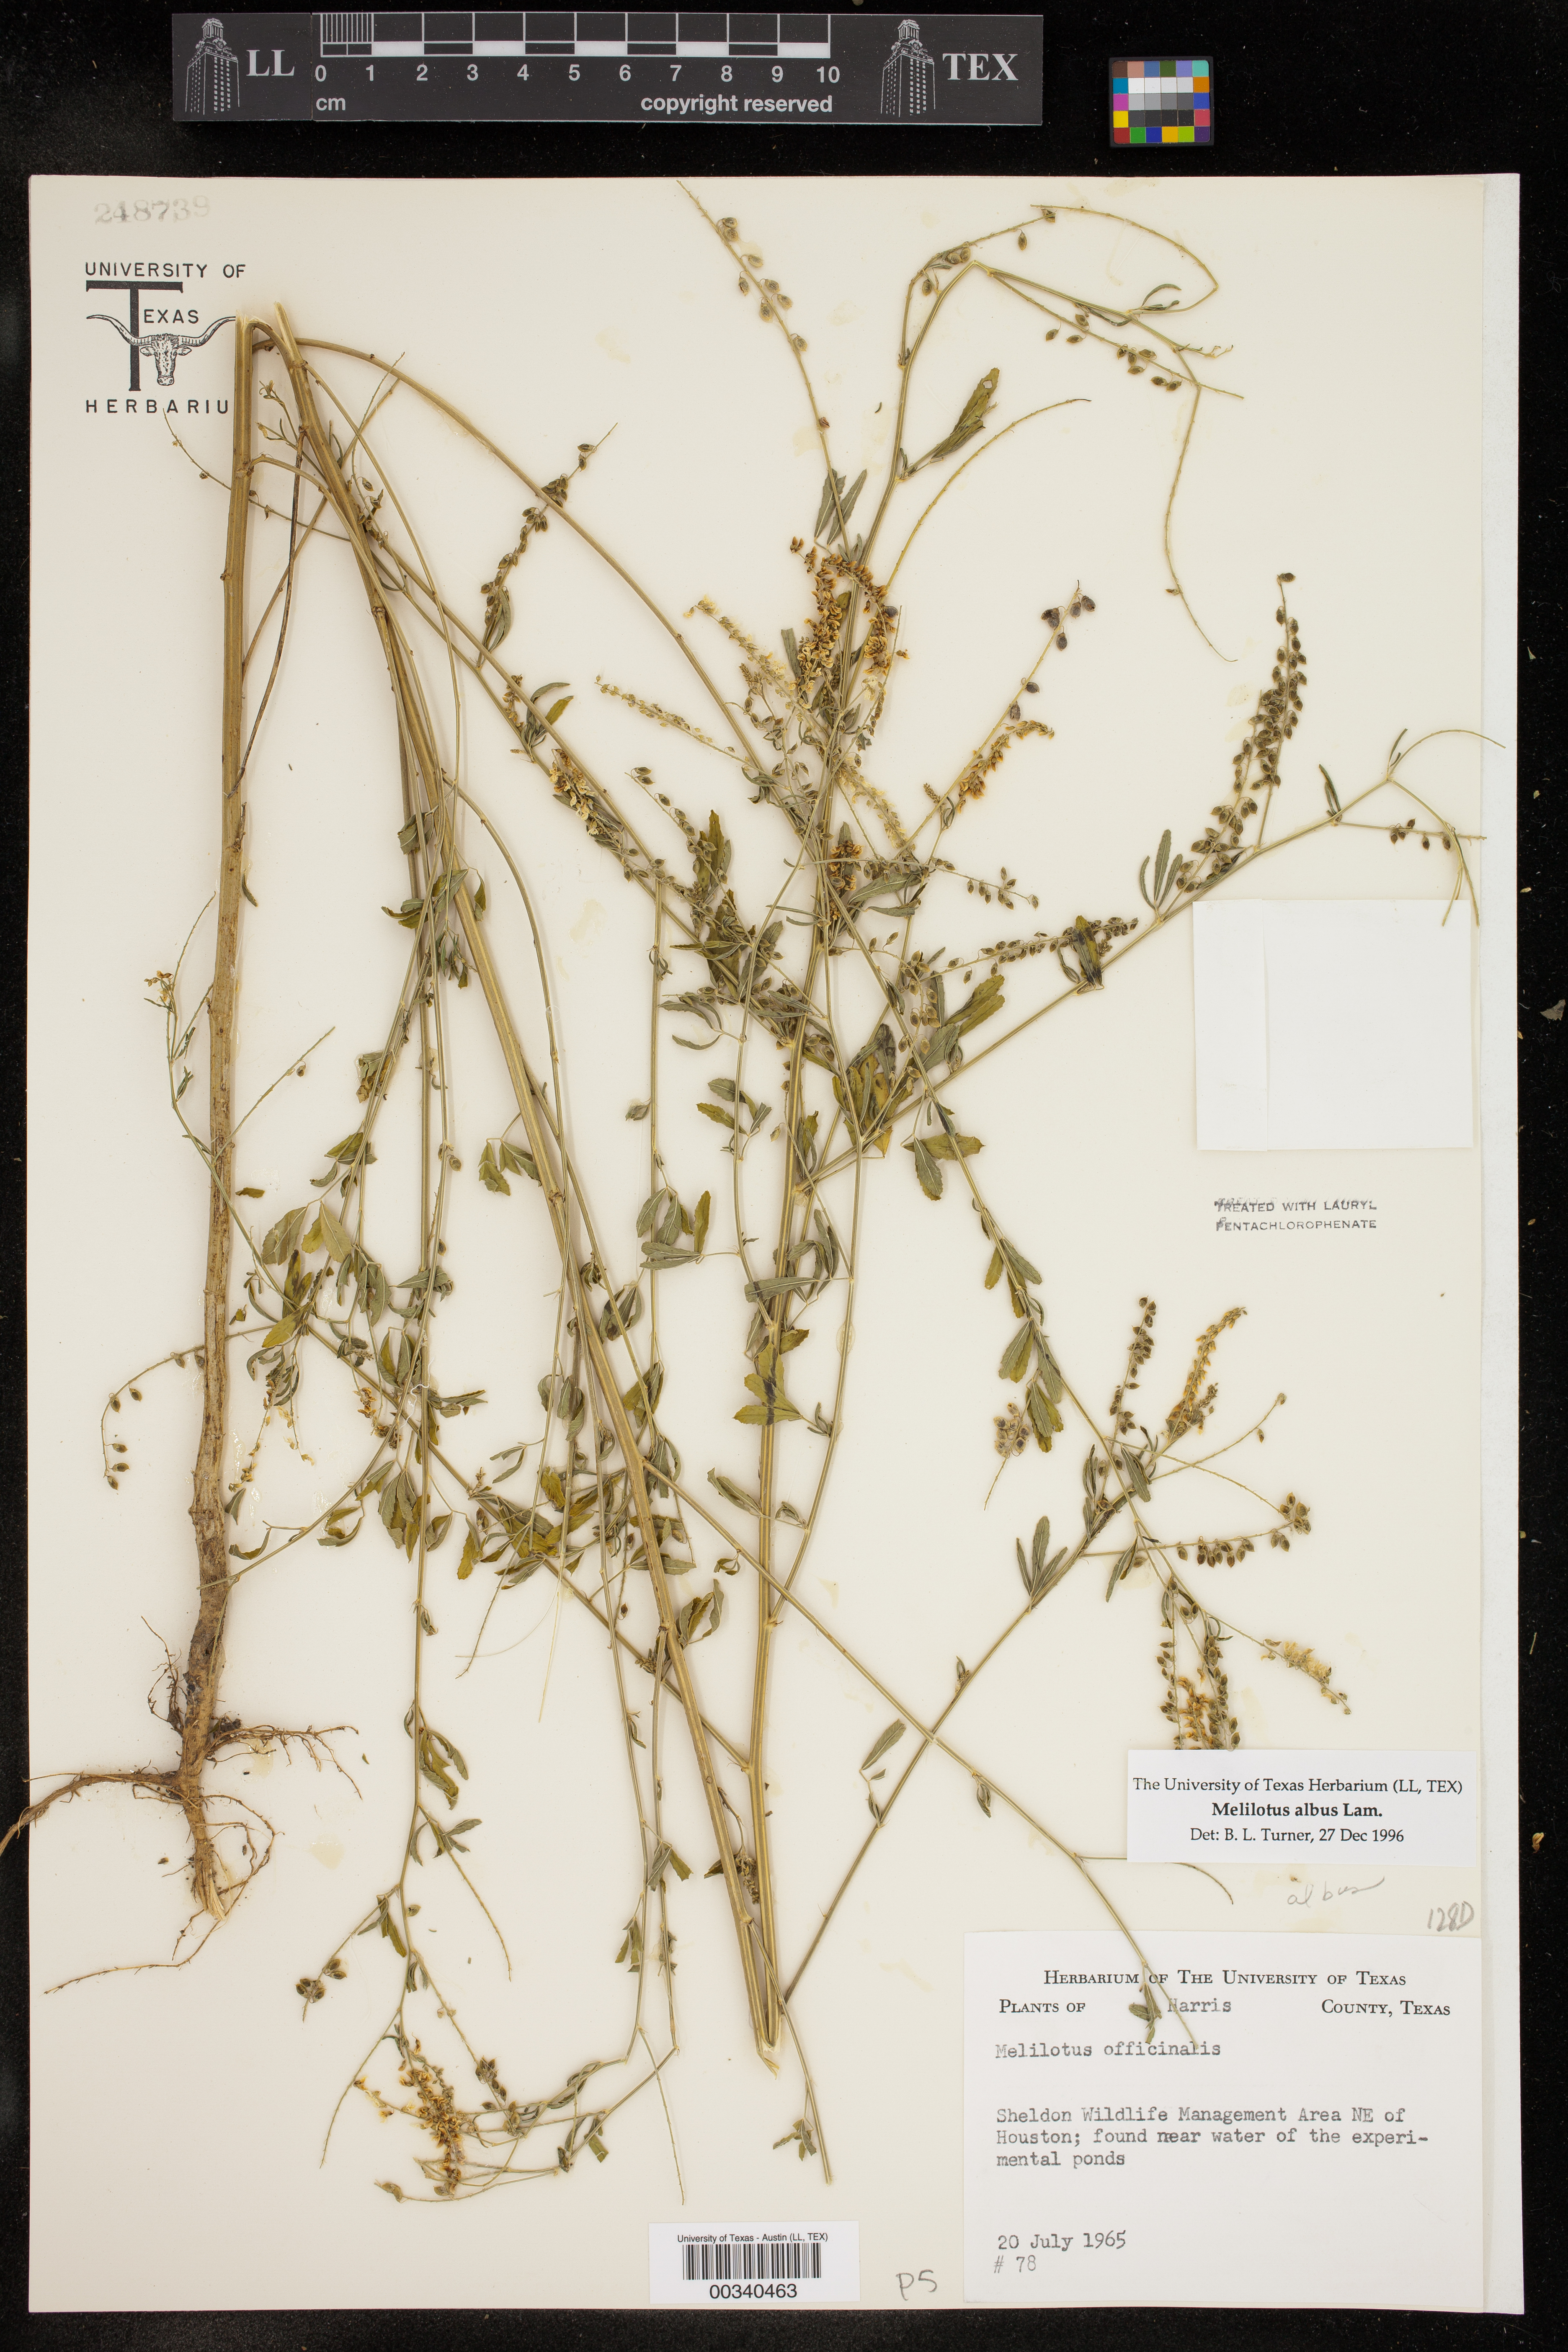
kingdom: Plantae
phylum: Tracheophyta
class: Magnoliopsida
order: Fabales
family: Fabaceae
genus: Melilotus
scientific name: Melilotus albus
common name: White melilot
